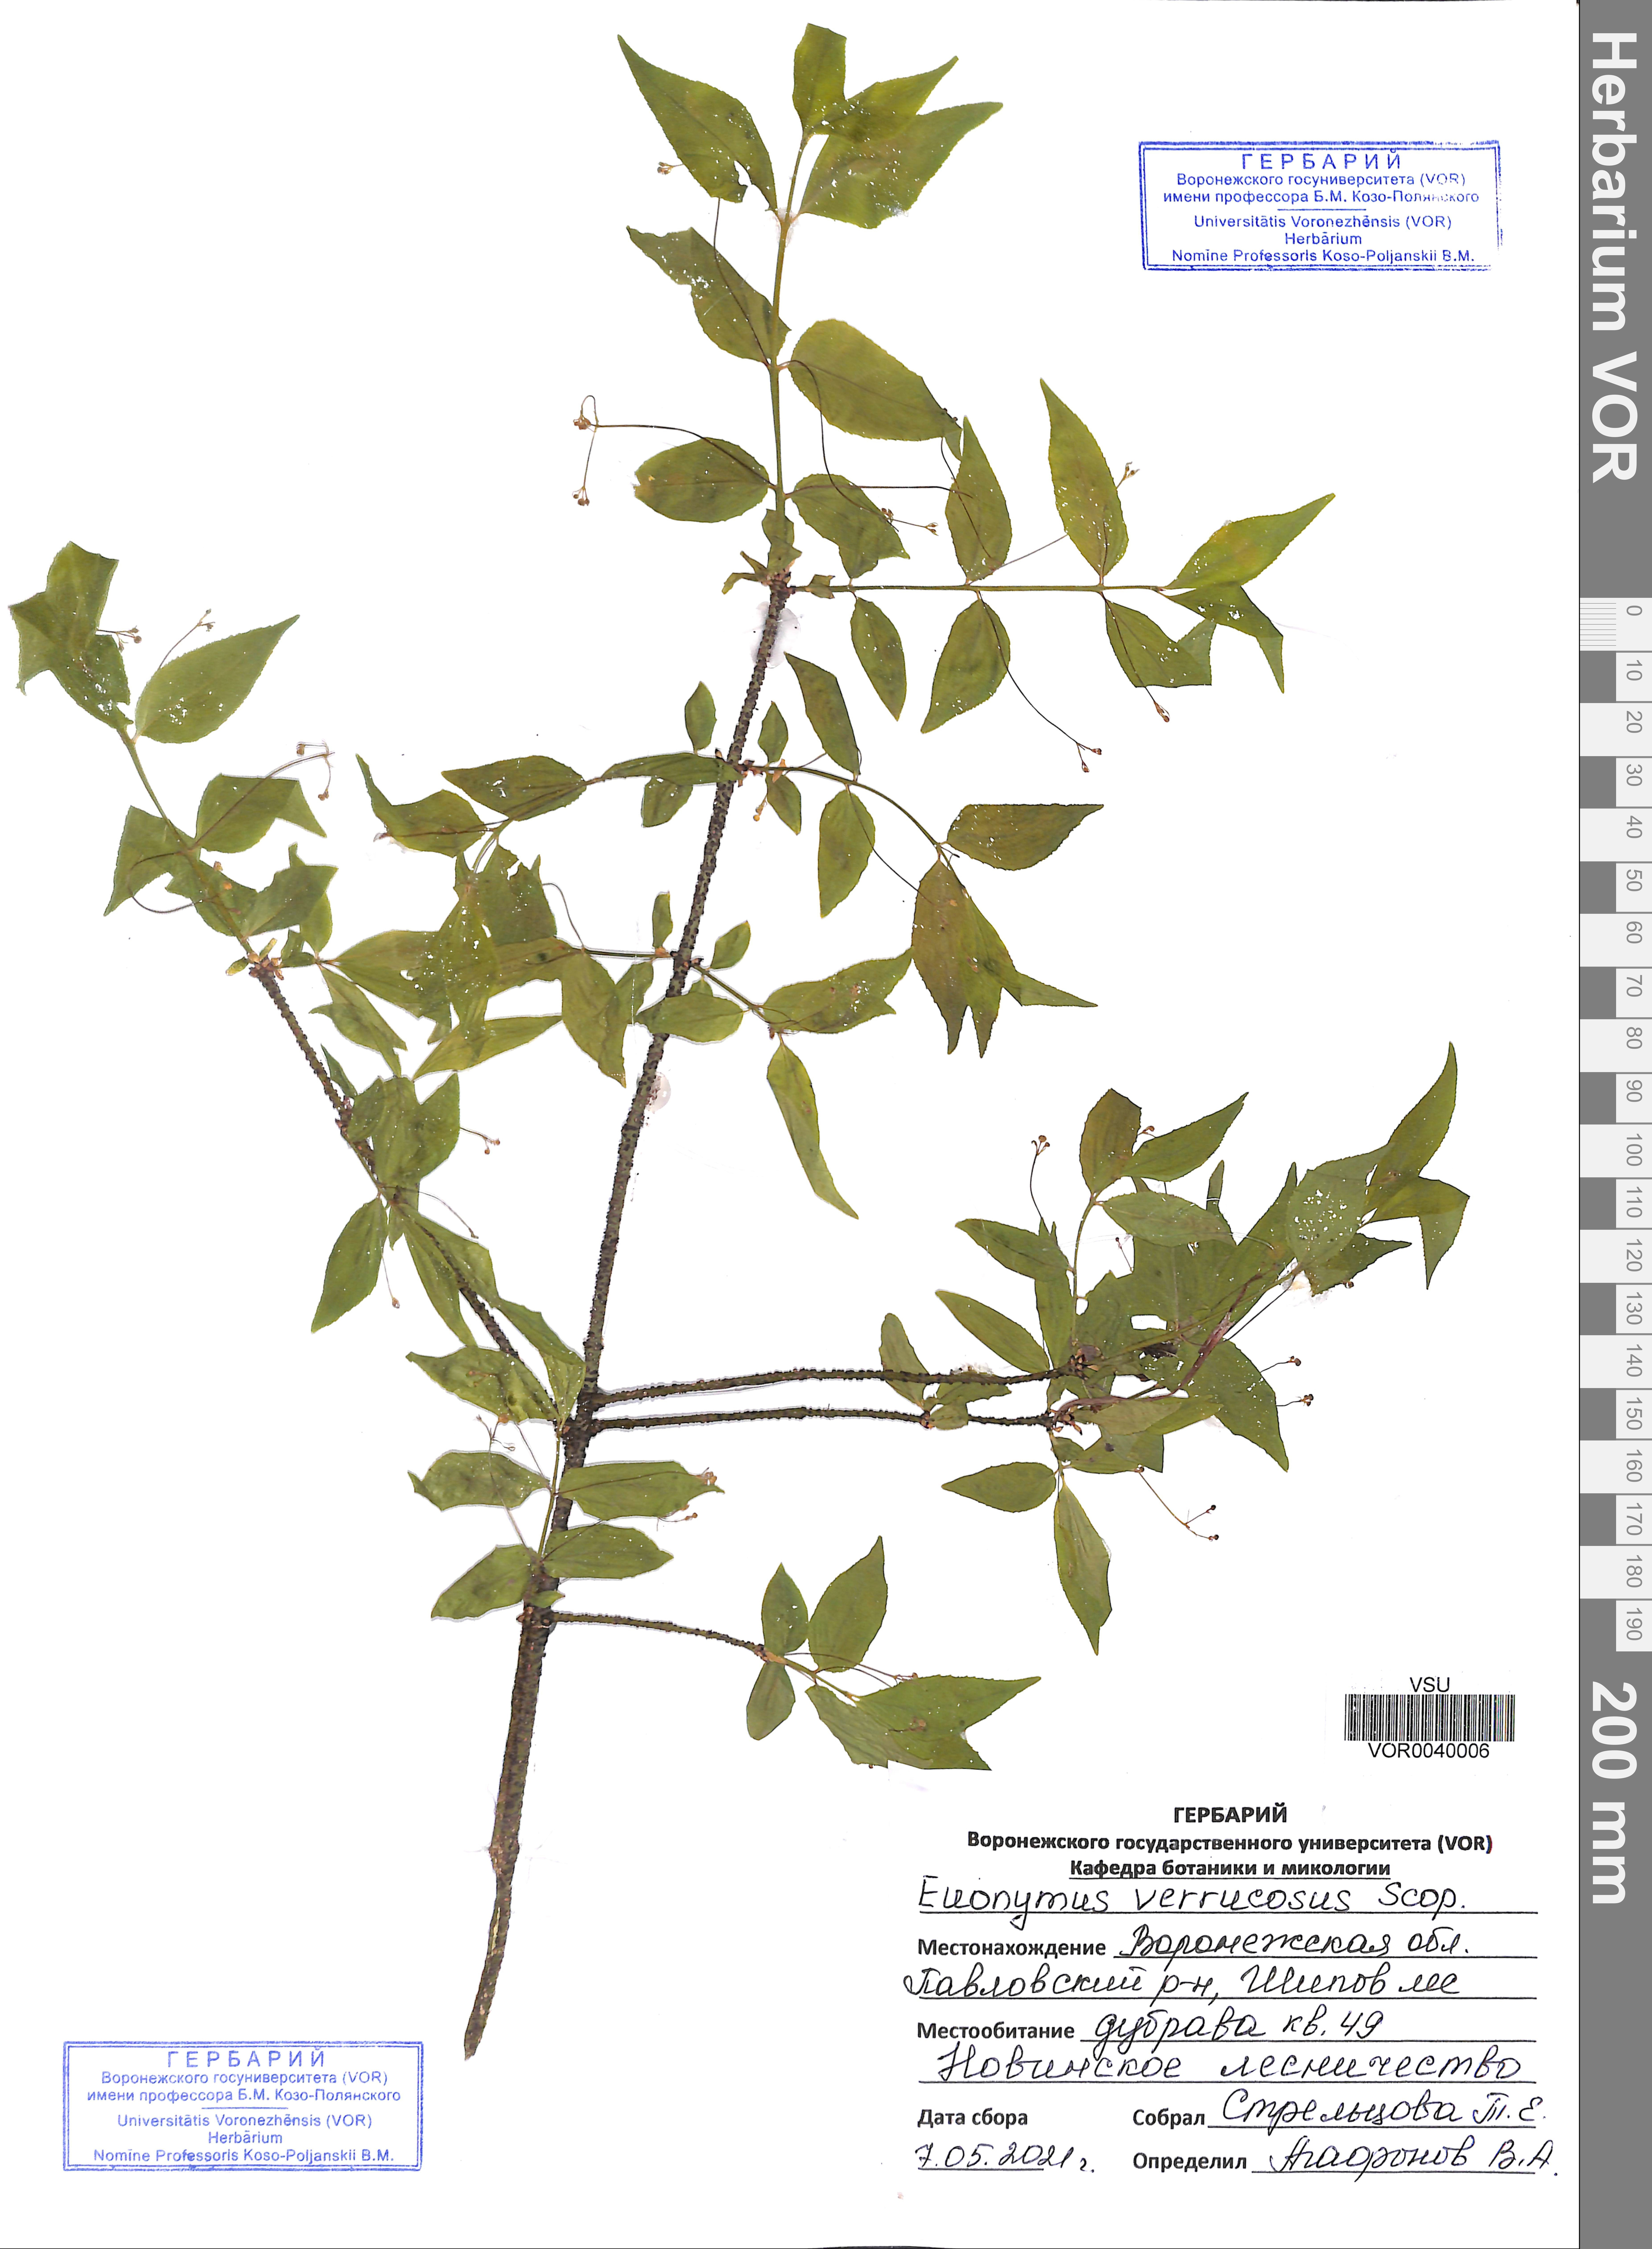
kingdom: Plantae
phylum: Tracheophyta
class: Magnoliopsida
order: Celastrales
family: Celastraceae
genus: Euonymus
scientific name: Euonymus verrucosus
